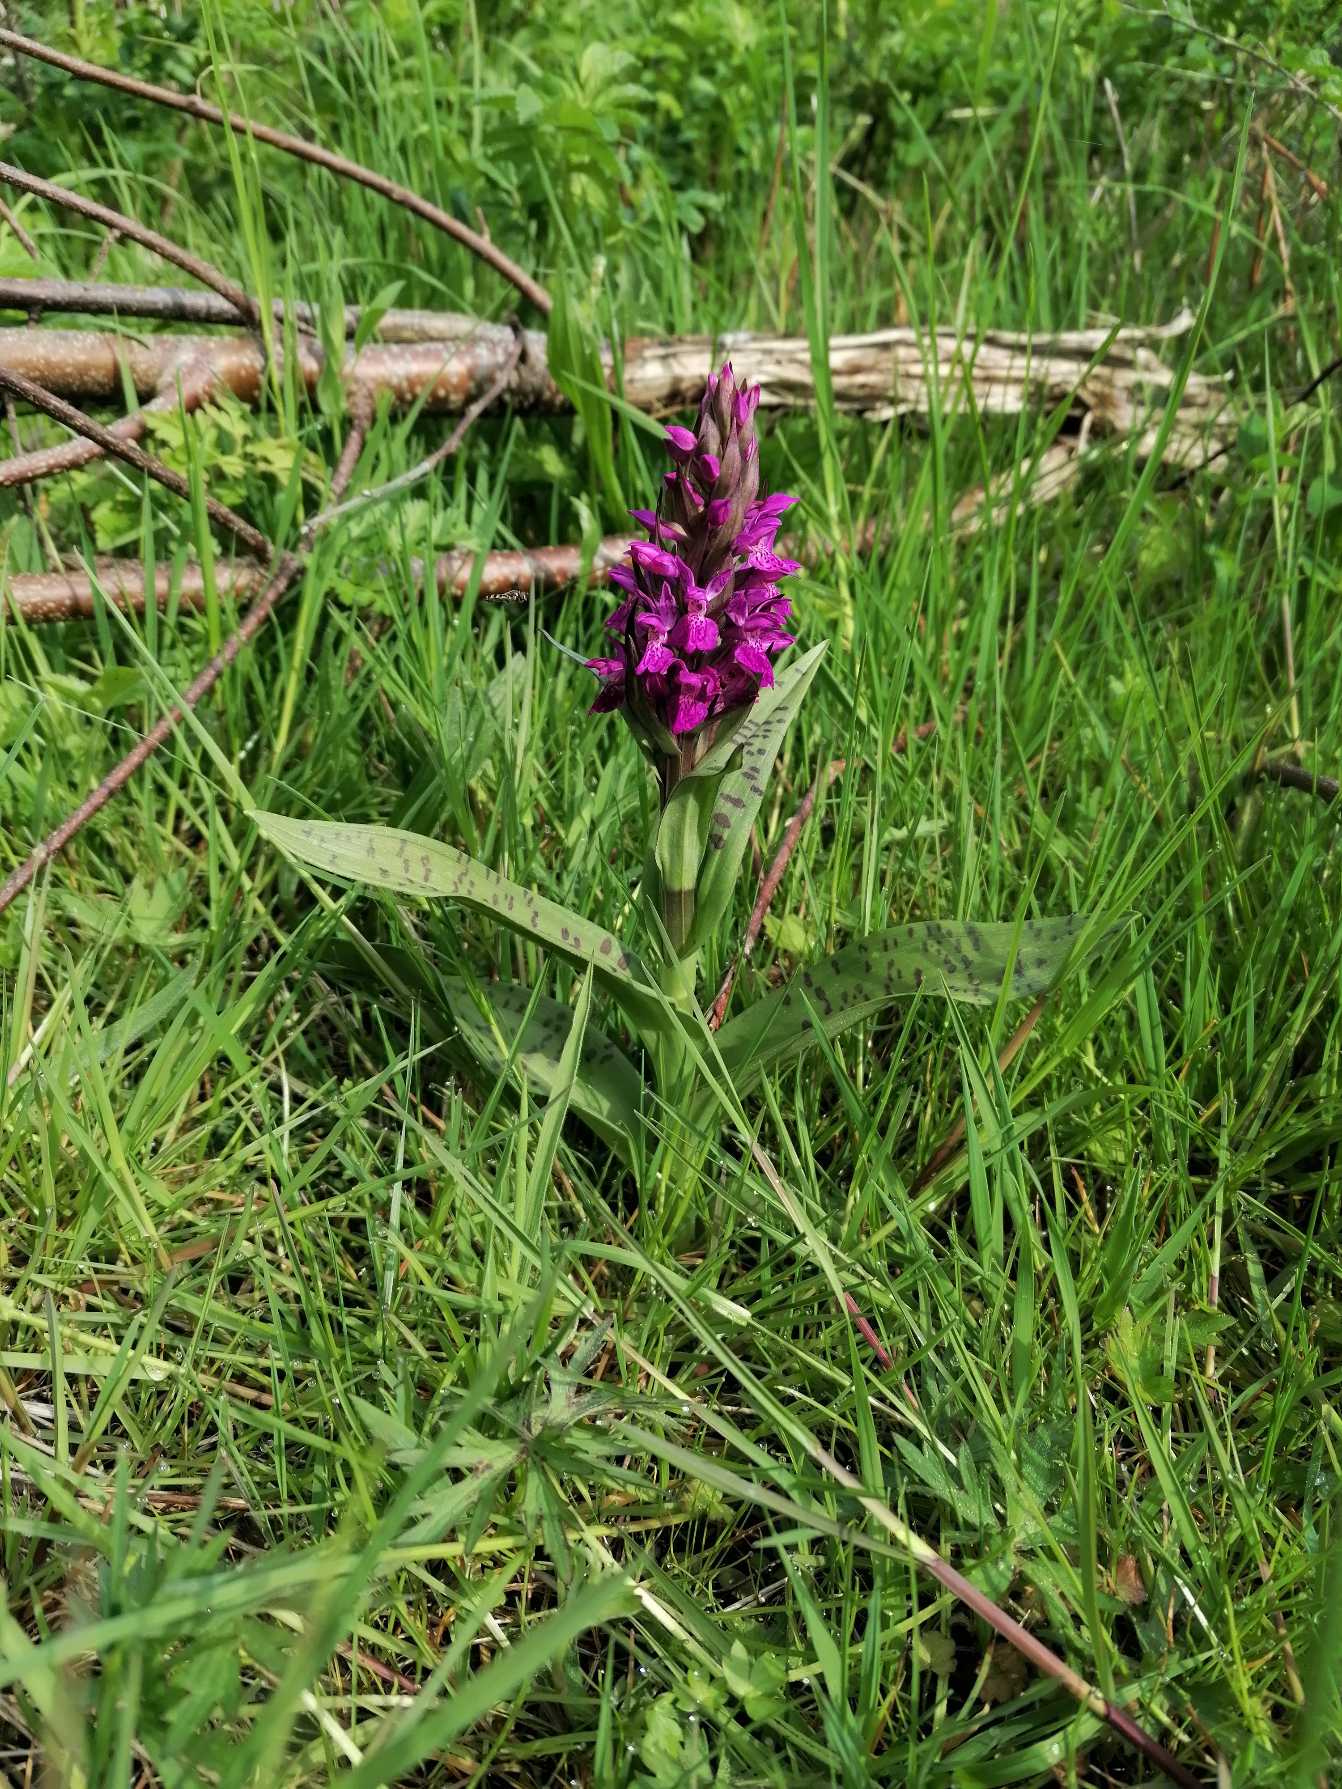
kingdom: Plantae
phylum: Tracheophyta
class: Liliopsida
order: Asparagales
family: Orchidaceae
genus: Dactylorhiza
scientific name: Dactylorhiza majalis
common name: Maj-gøgeurt
